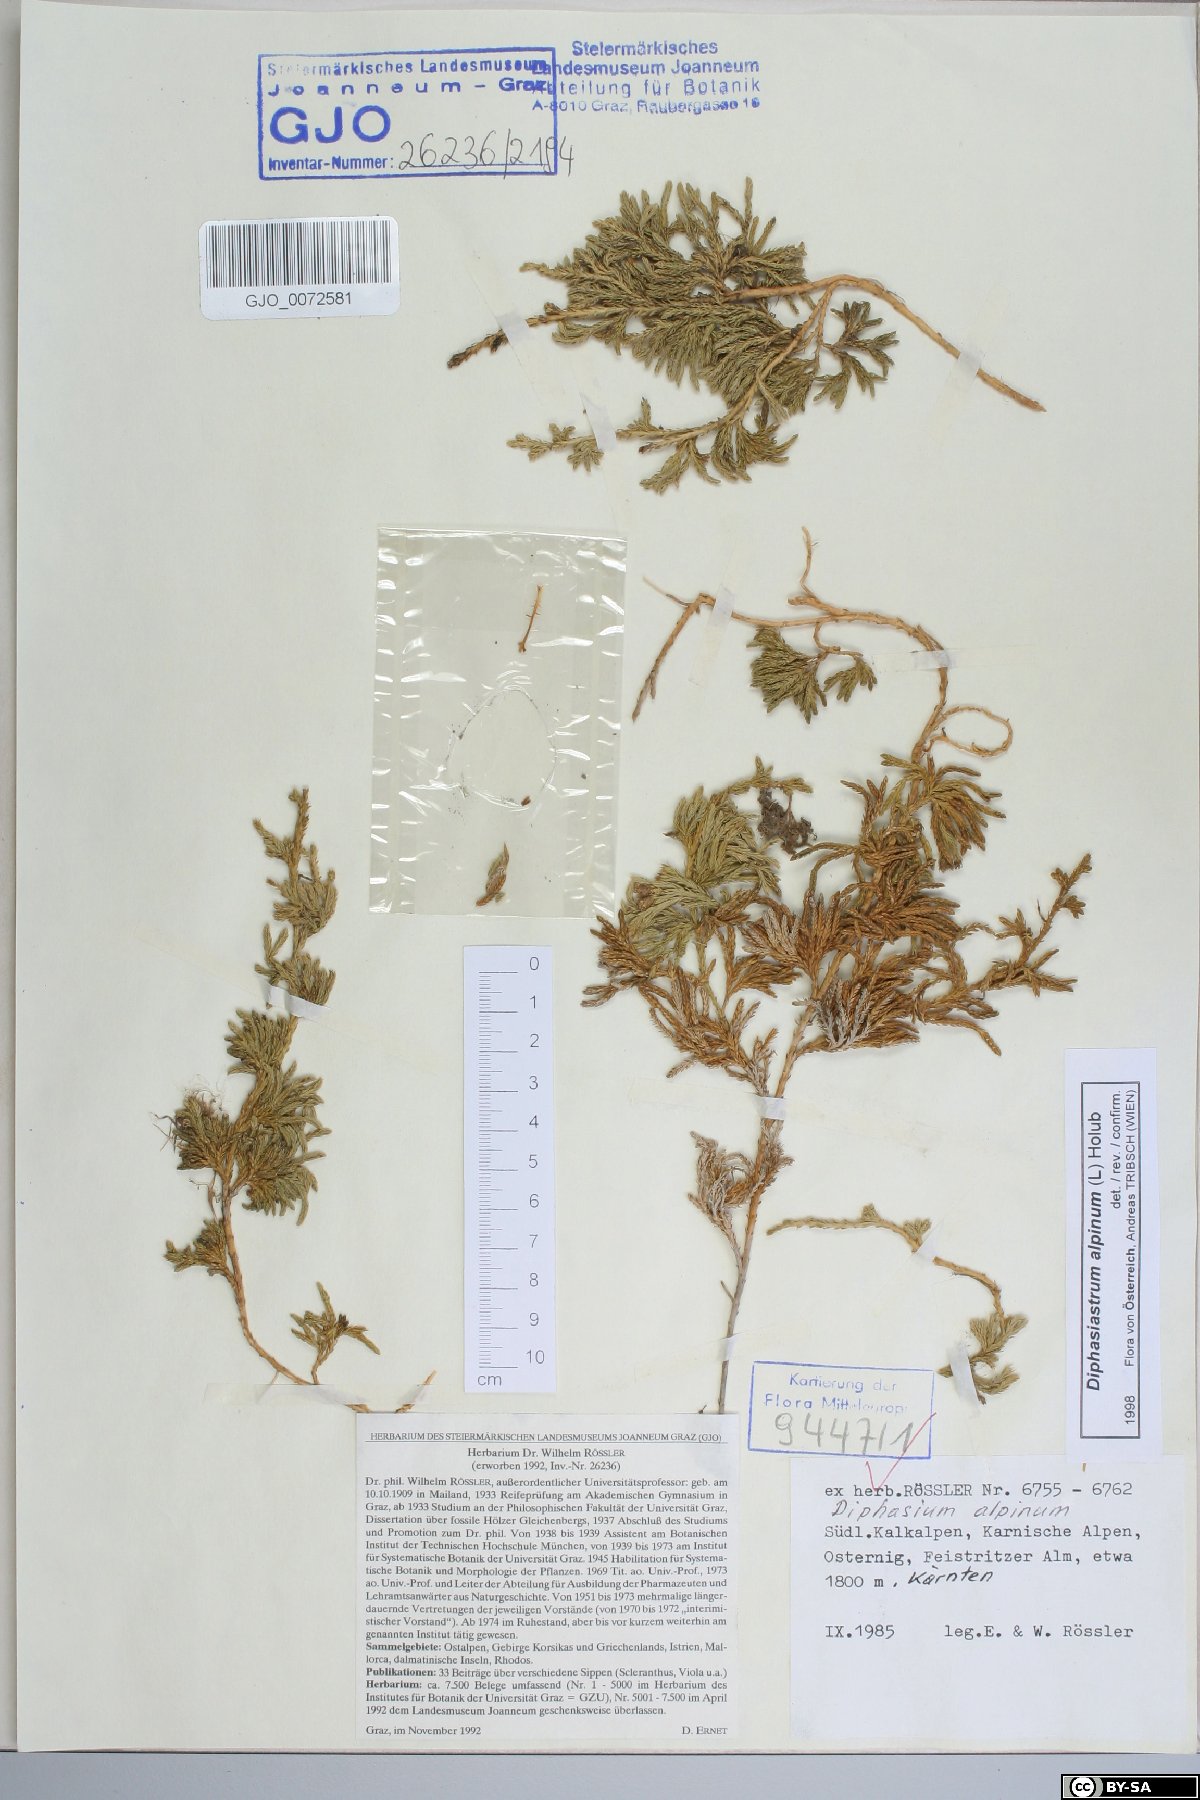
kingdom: Plantae
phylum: Tracheophyta
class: Lycopodiopsida
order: Lycopodiales
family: Lycopodiaceae
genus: Diphasiastrum
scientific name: Diphasiastrum alpinum
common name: Alpine clubmoss
